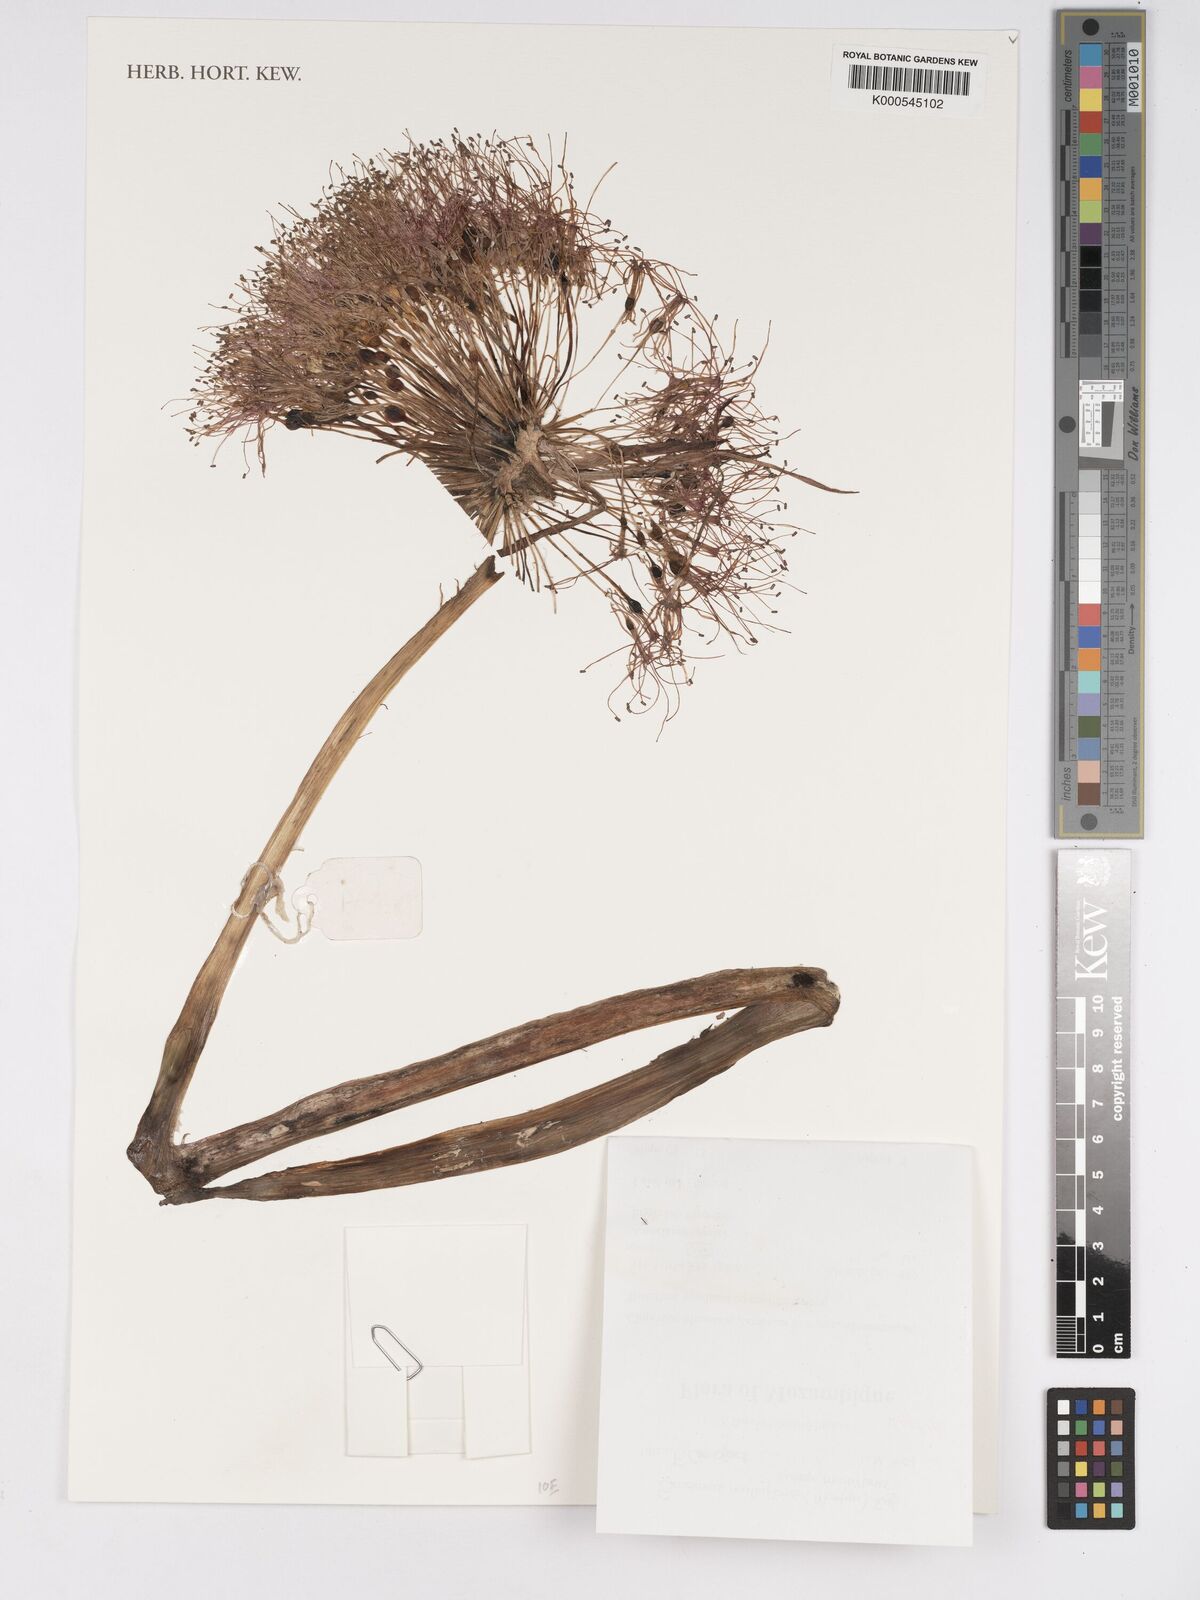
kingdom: Plantae
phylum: Tracheophyta
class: Liliopsida
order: Asparagales
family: Amaryllidaceae
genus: Scadoxus
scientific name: Scadoxus multiflorus
